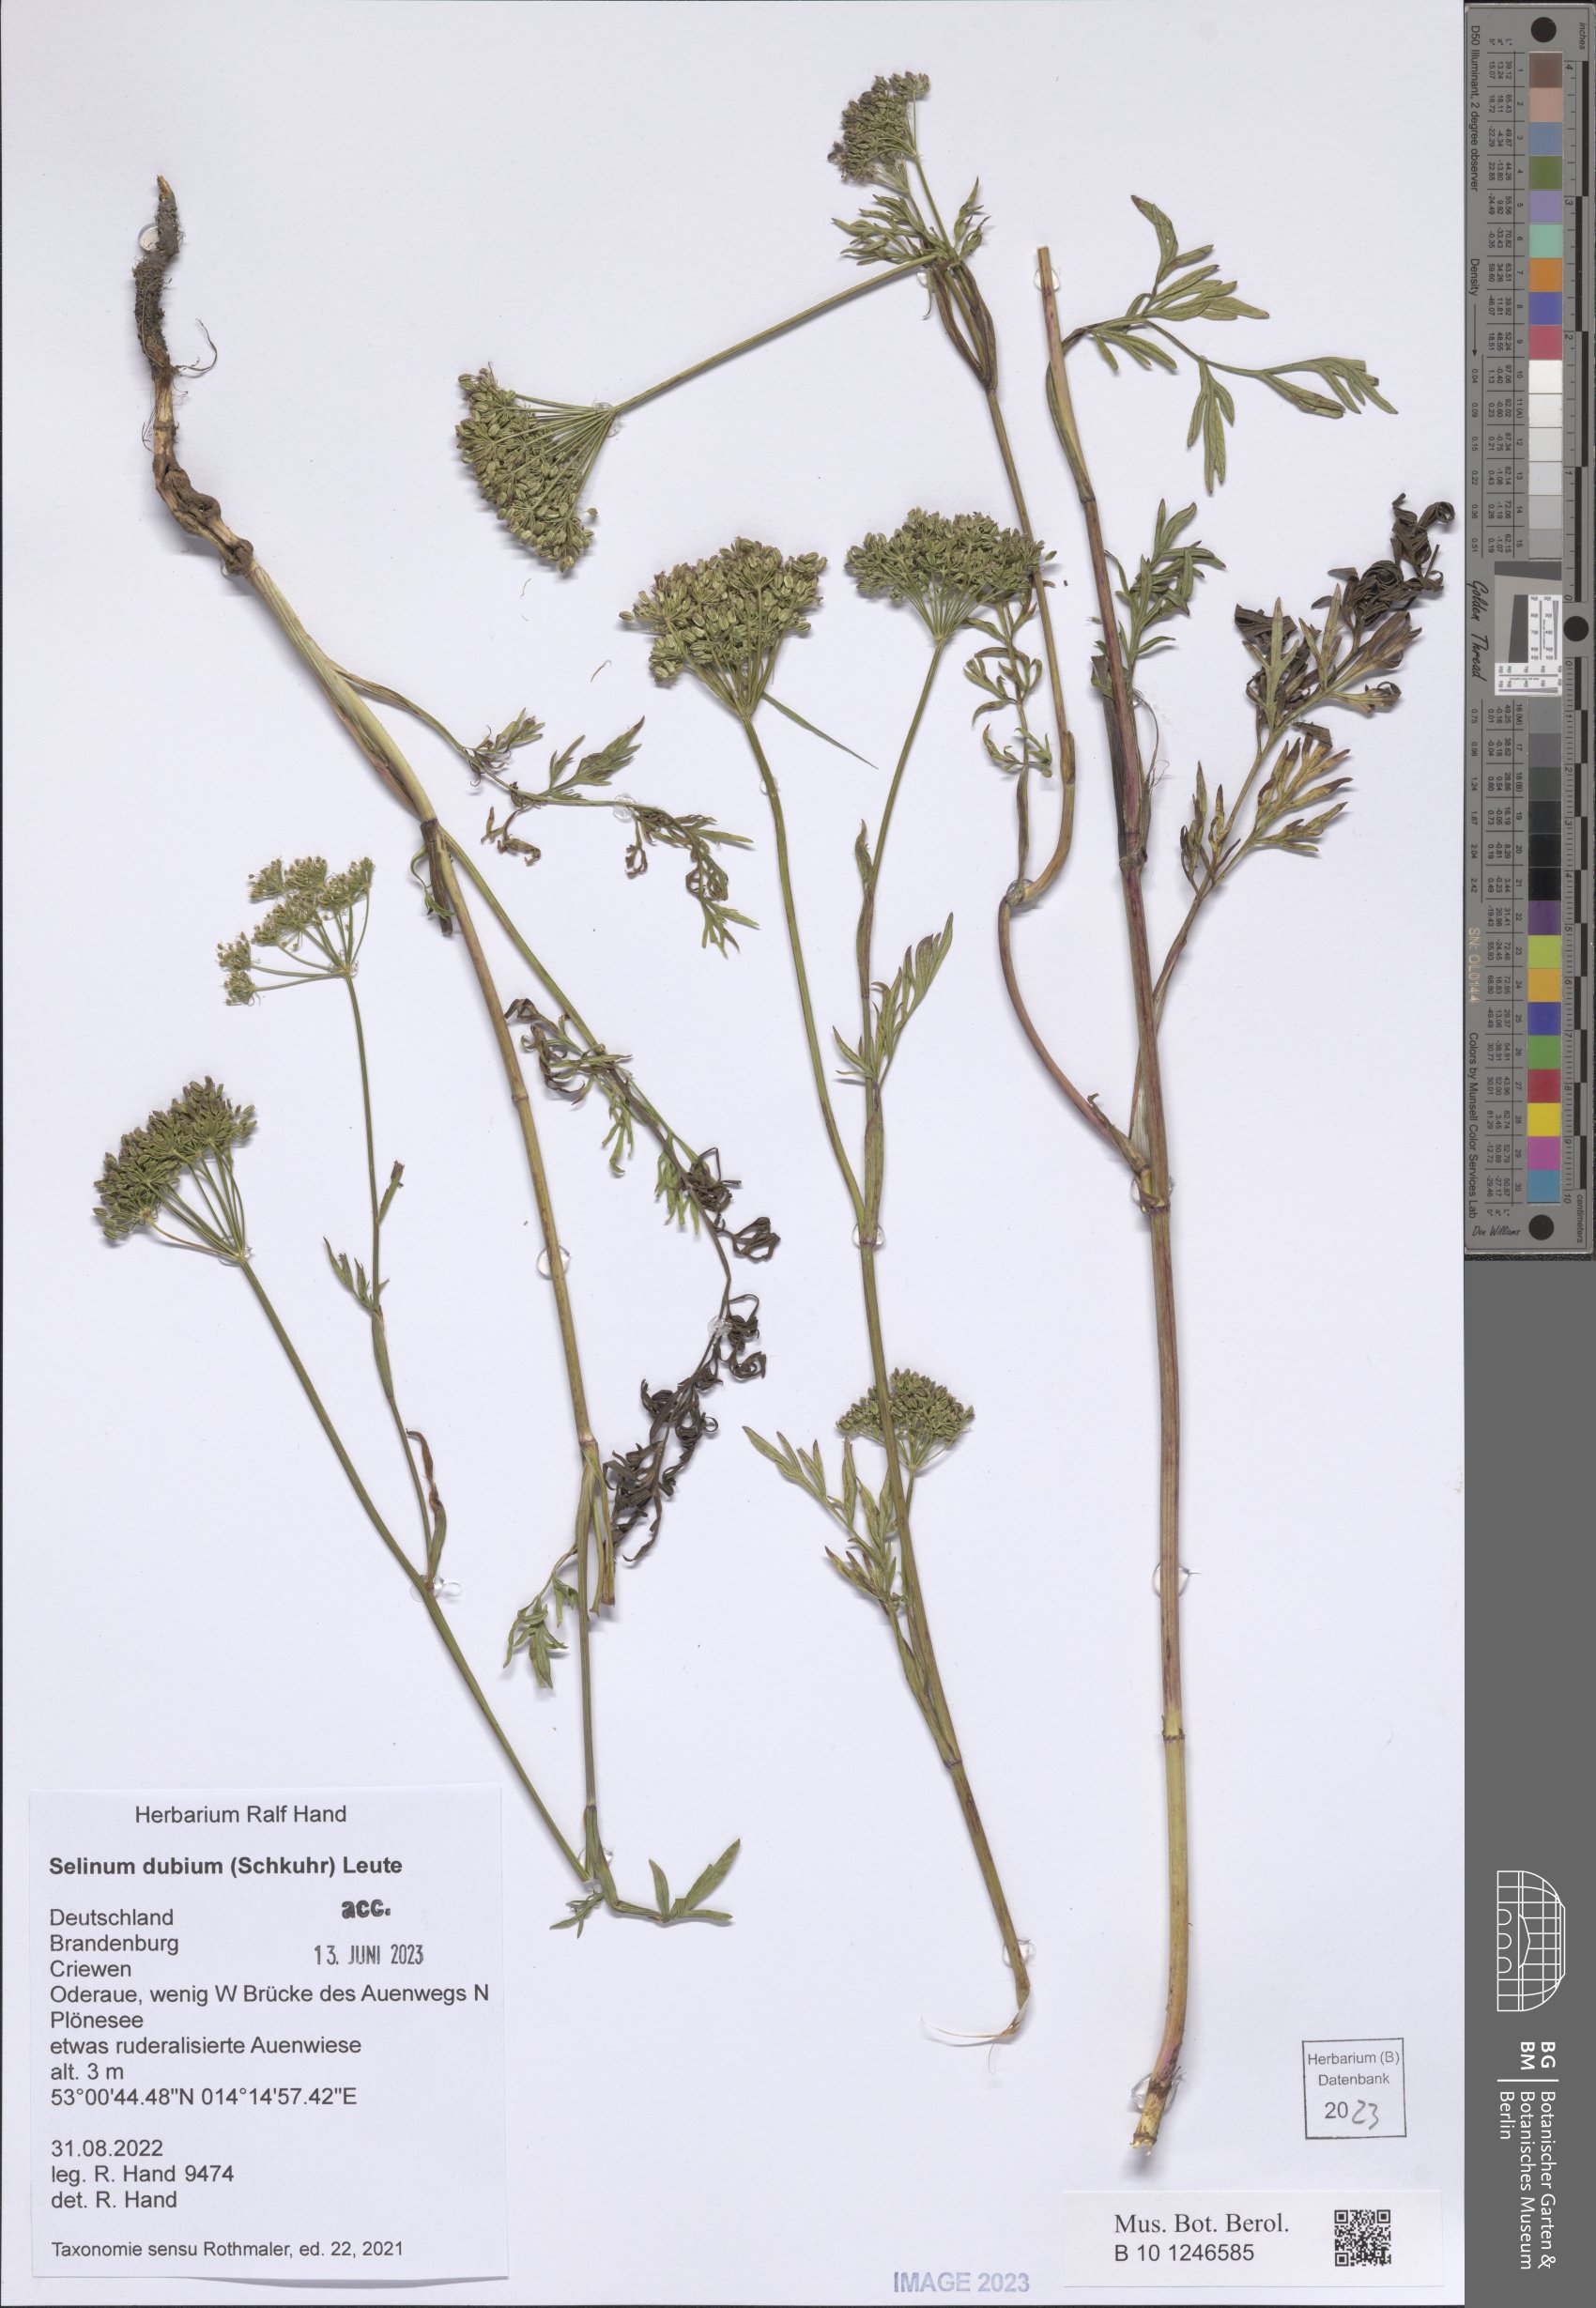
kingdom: Plantae
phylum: Tracheophyta
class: Magnoliopsida
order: Apiales
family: Apiaceae
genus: Kadenia
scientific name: Kadenia dubia
